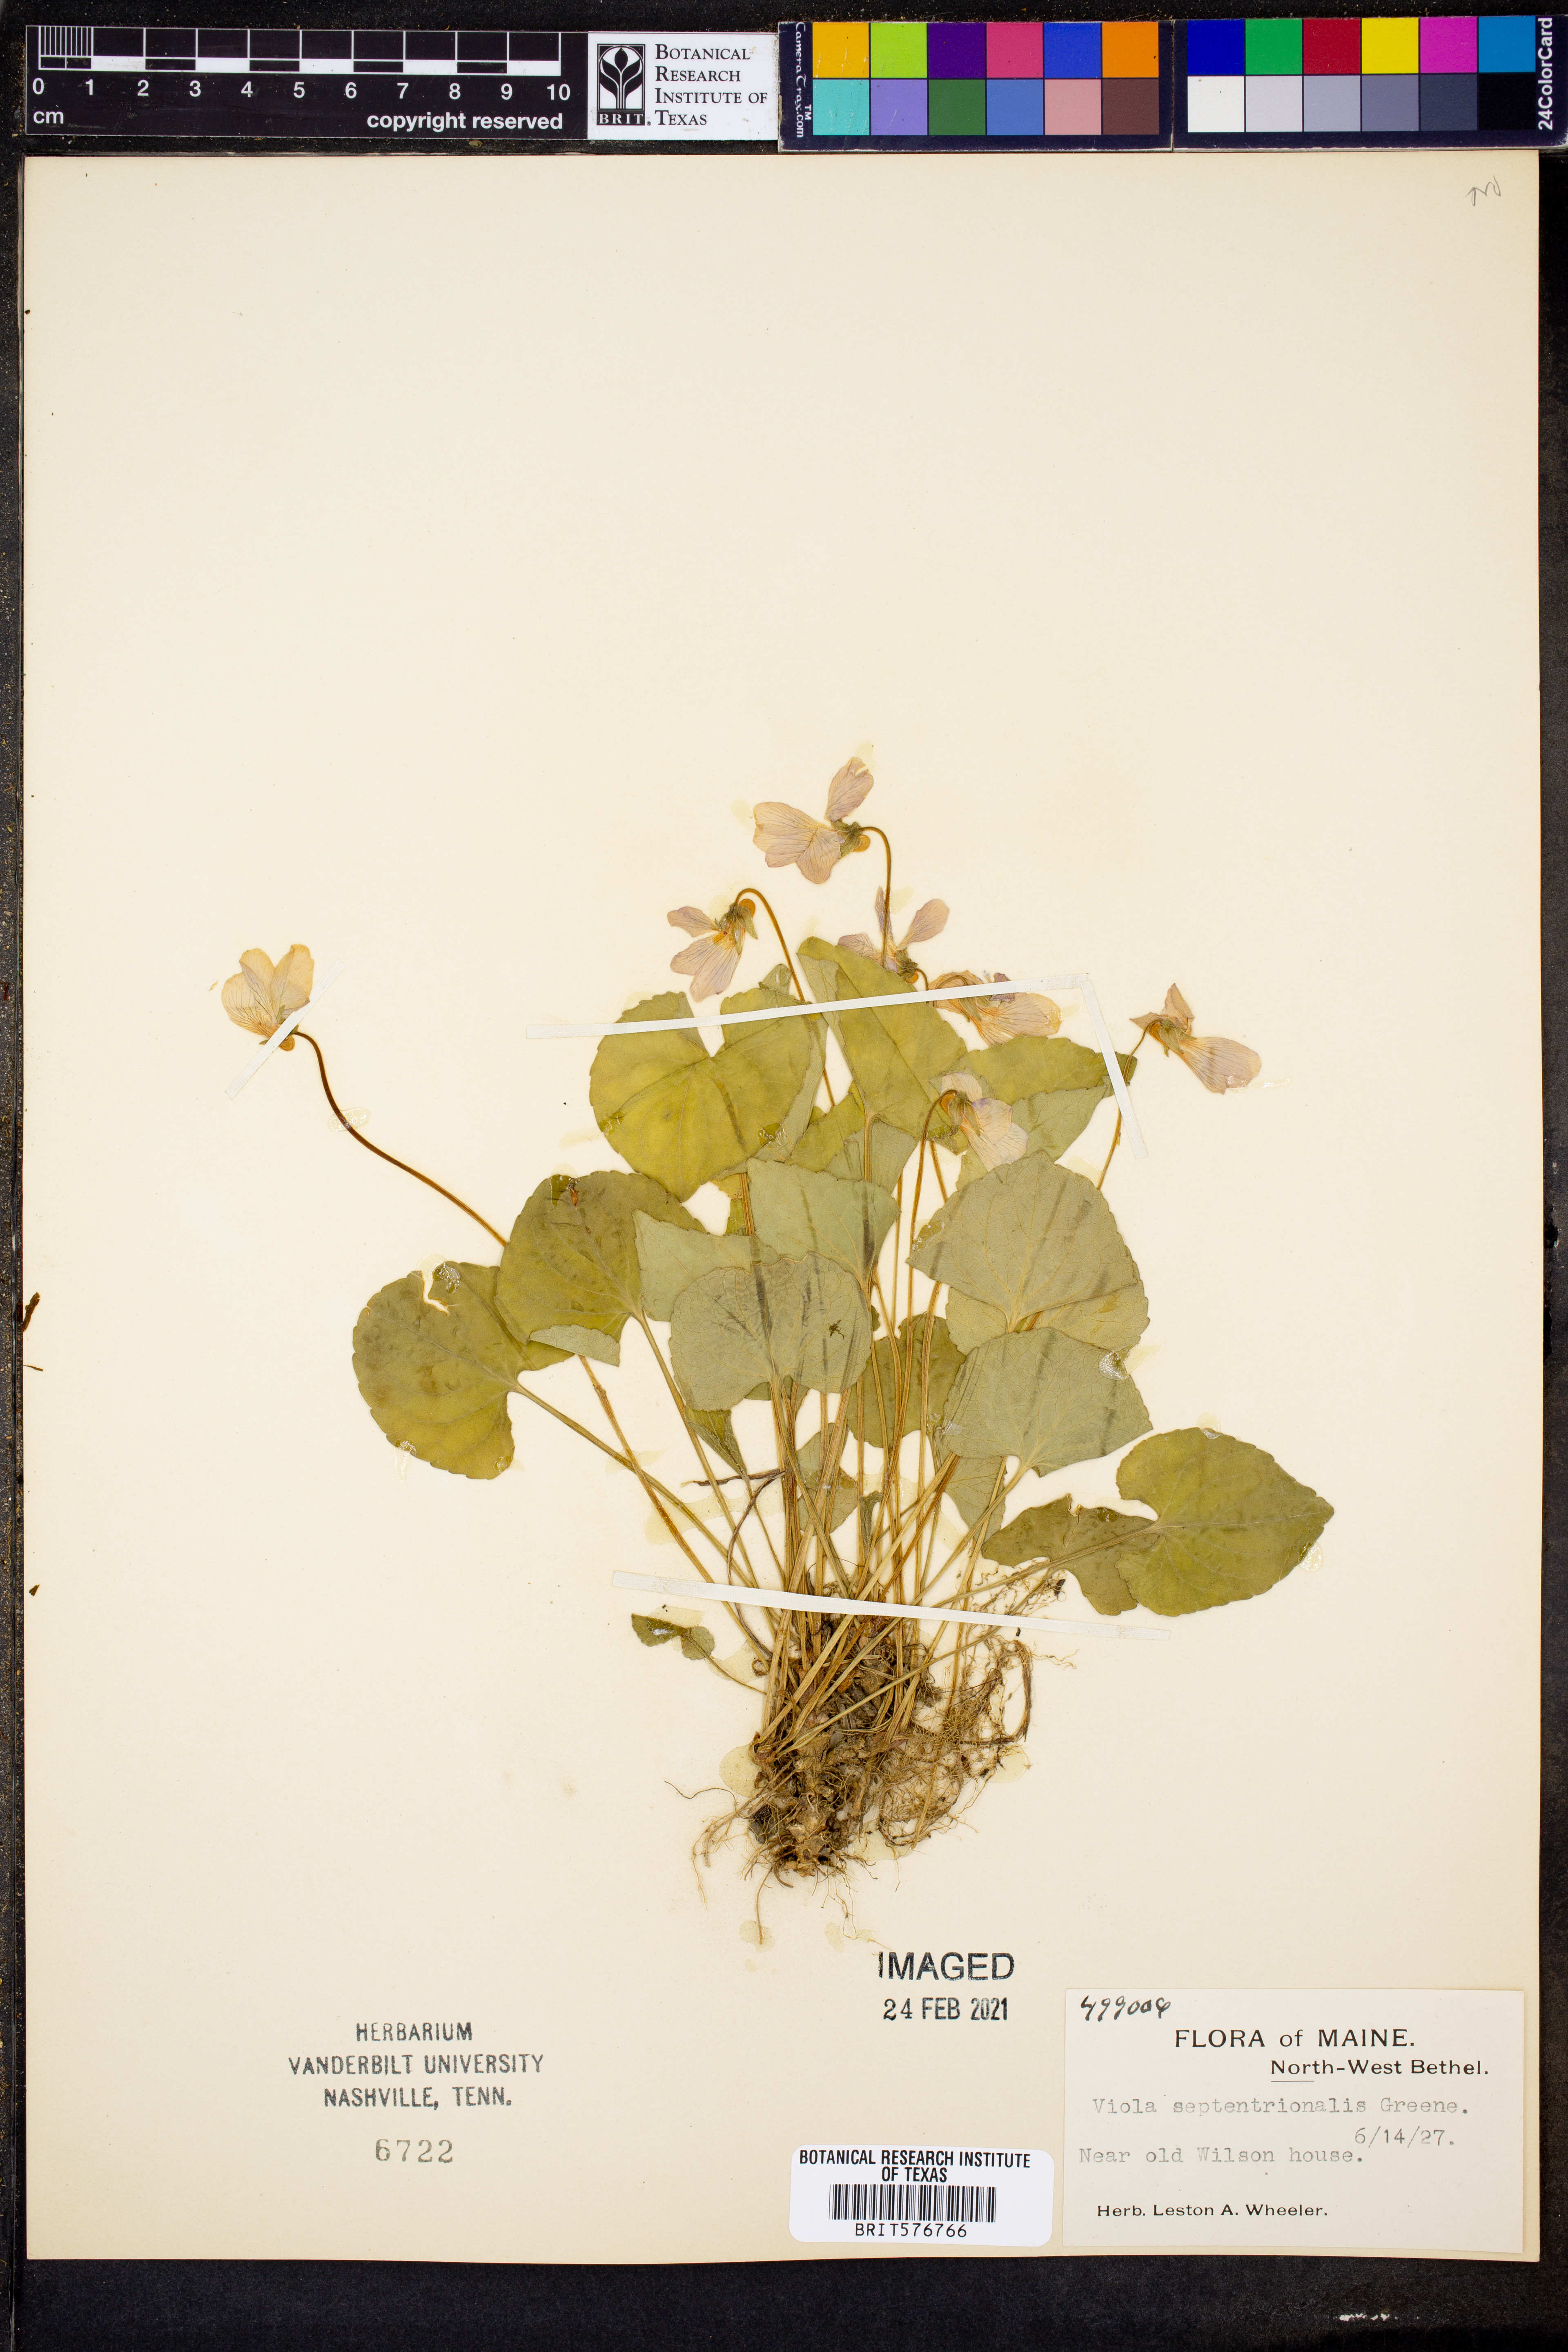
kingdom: Plantae
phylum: Tracheophyta
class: Magnoliopsida
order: Malpighiales
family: Violaceae
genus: Viola
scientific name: Viola septentrionalis
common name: Northern woodland violet
